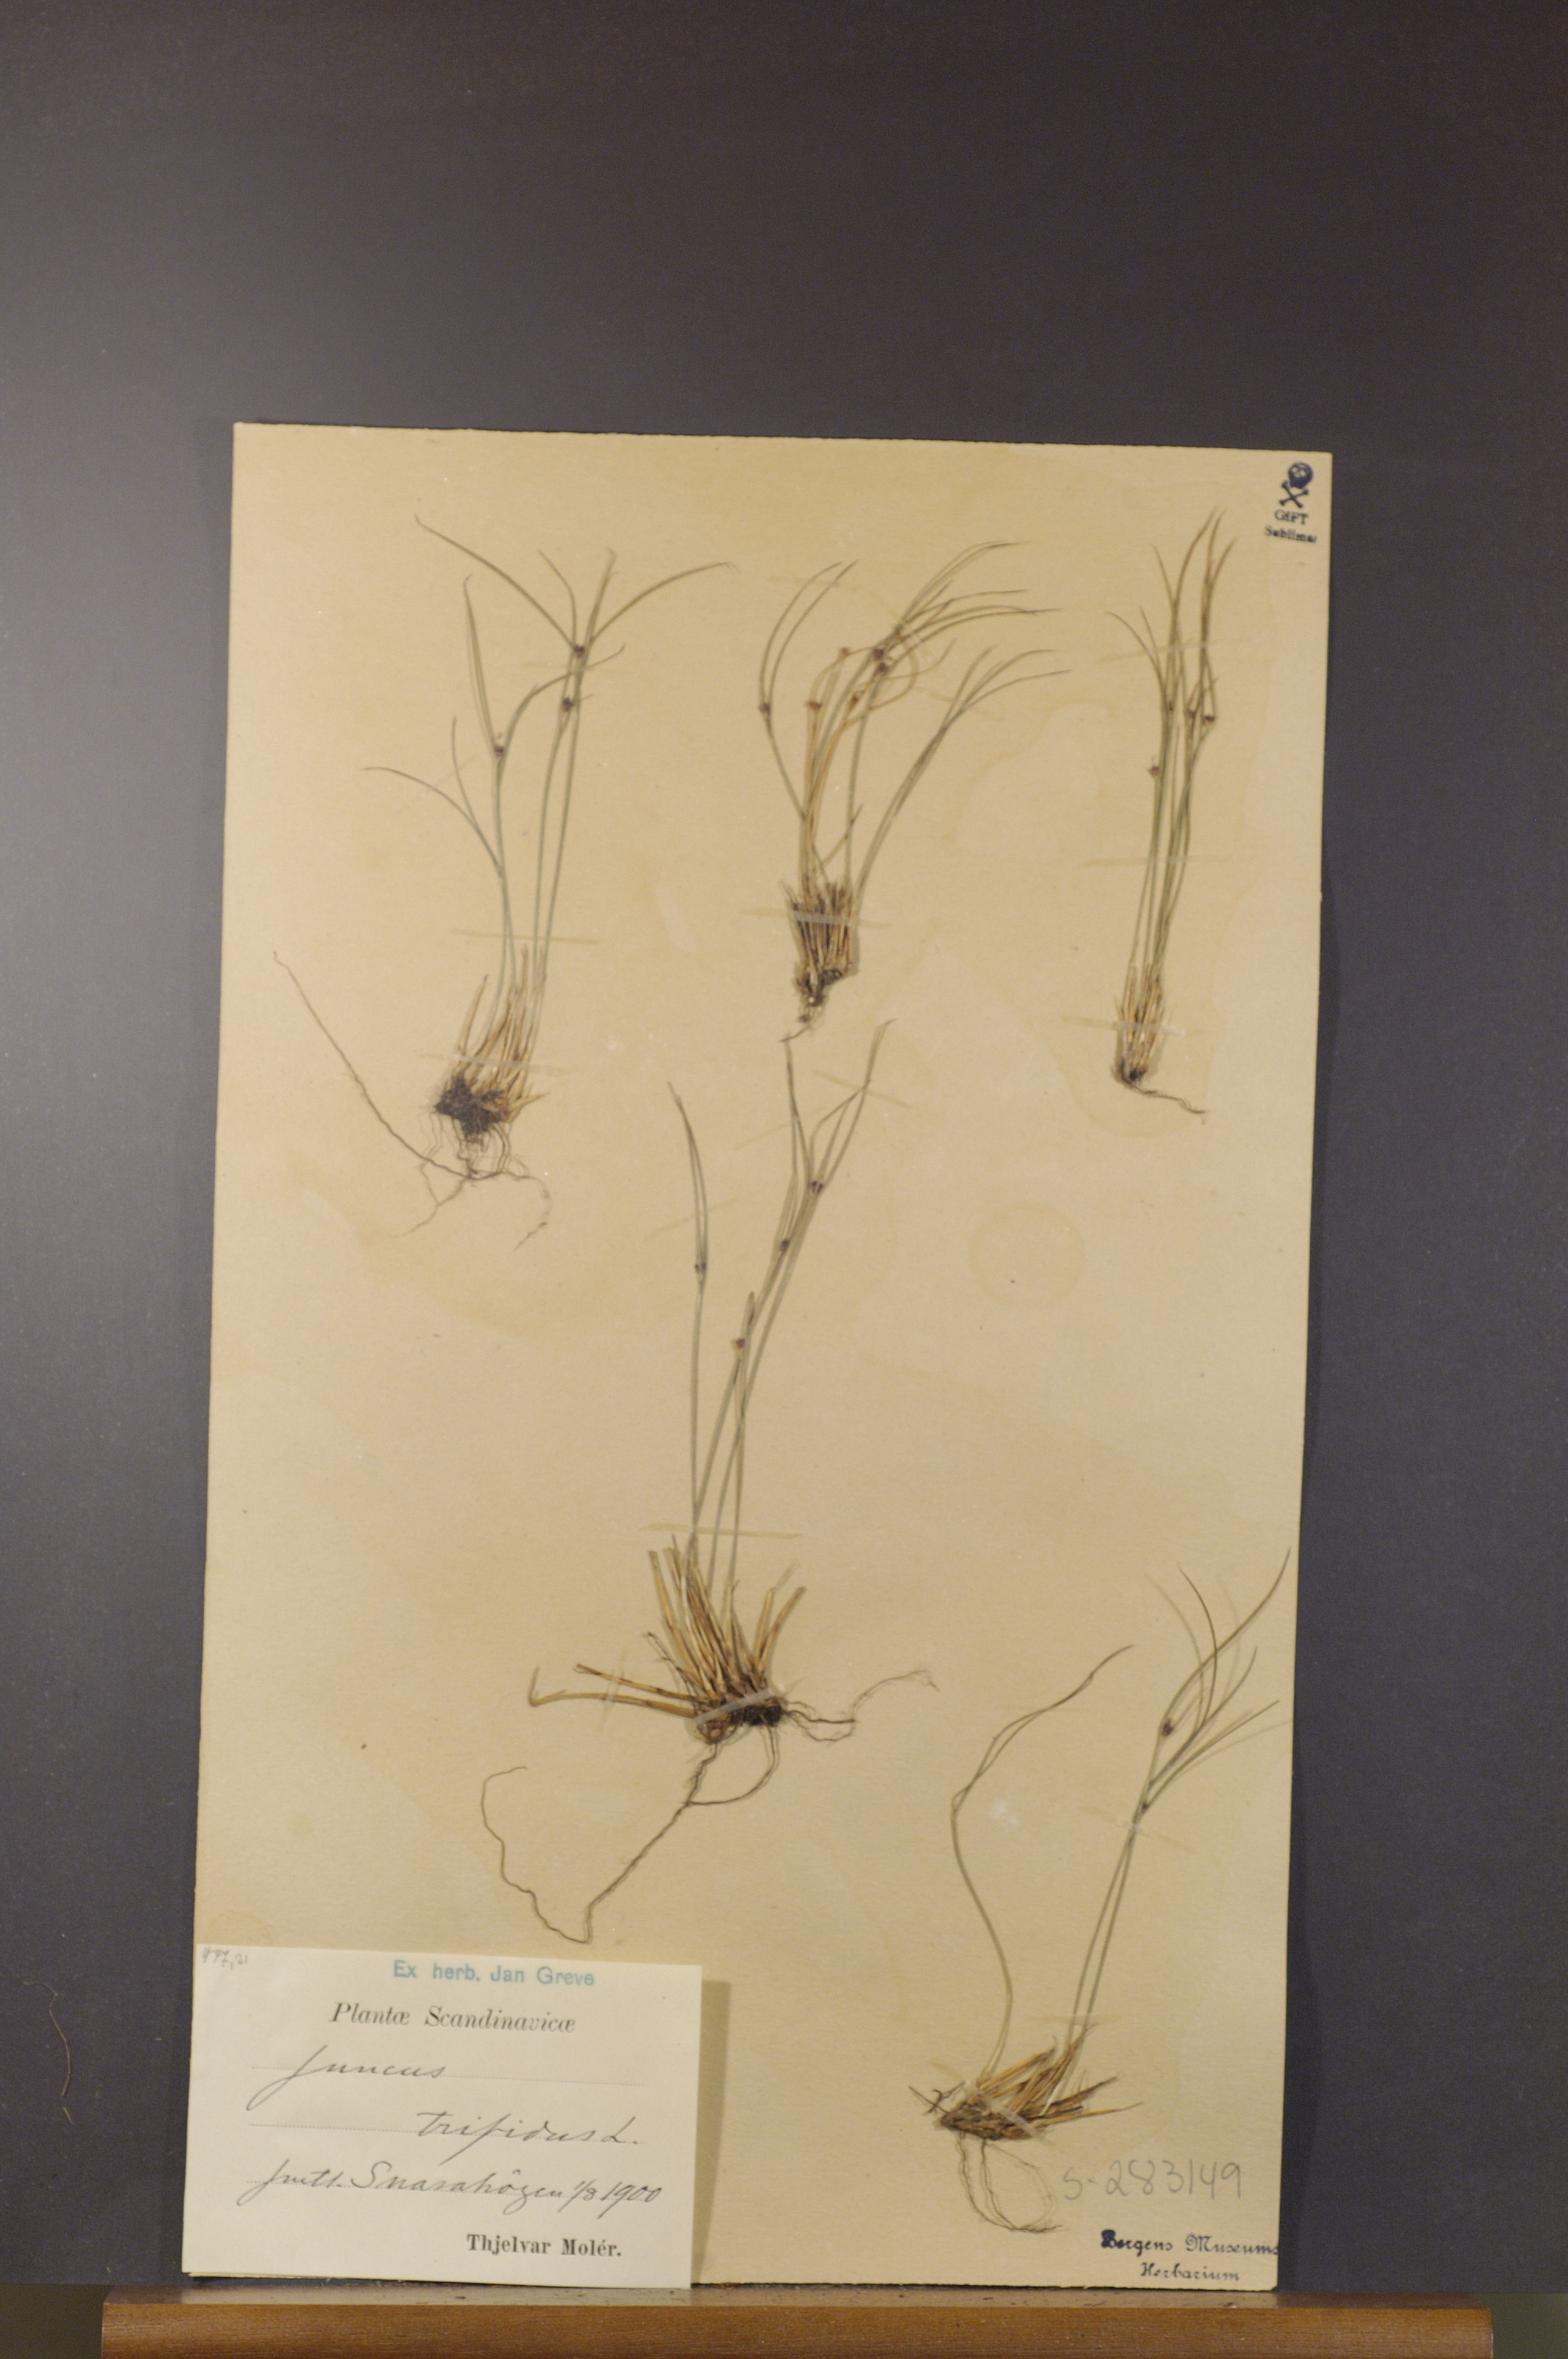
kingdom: Plantae
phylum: Tracheophyta
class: Liliopsida
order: Poales
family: Juncaceae
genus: Oreojuncus
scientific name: Oreojuncus trifidus
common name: Highland rush
